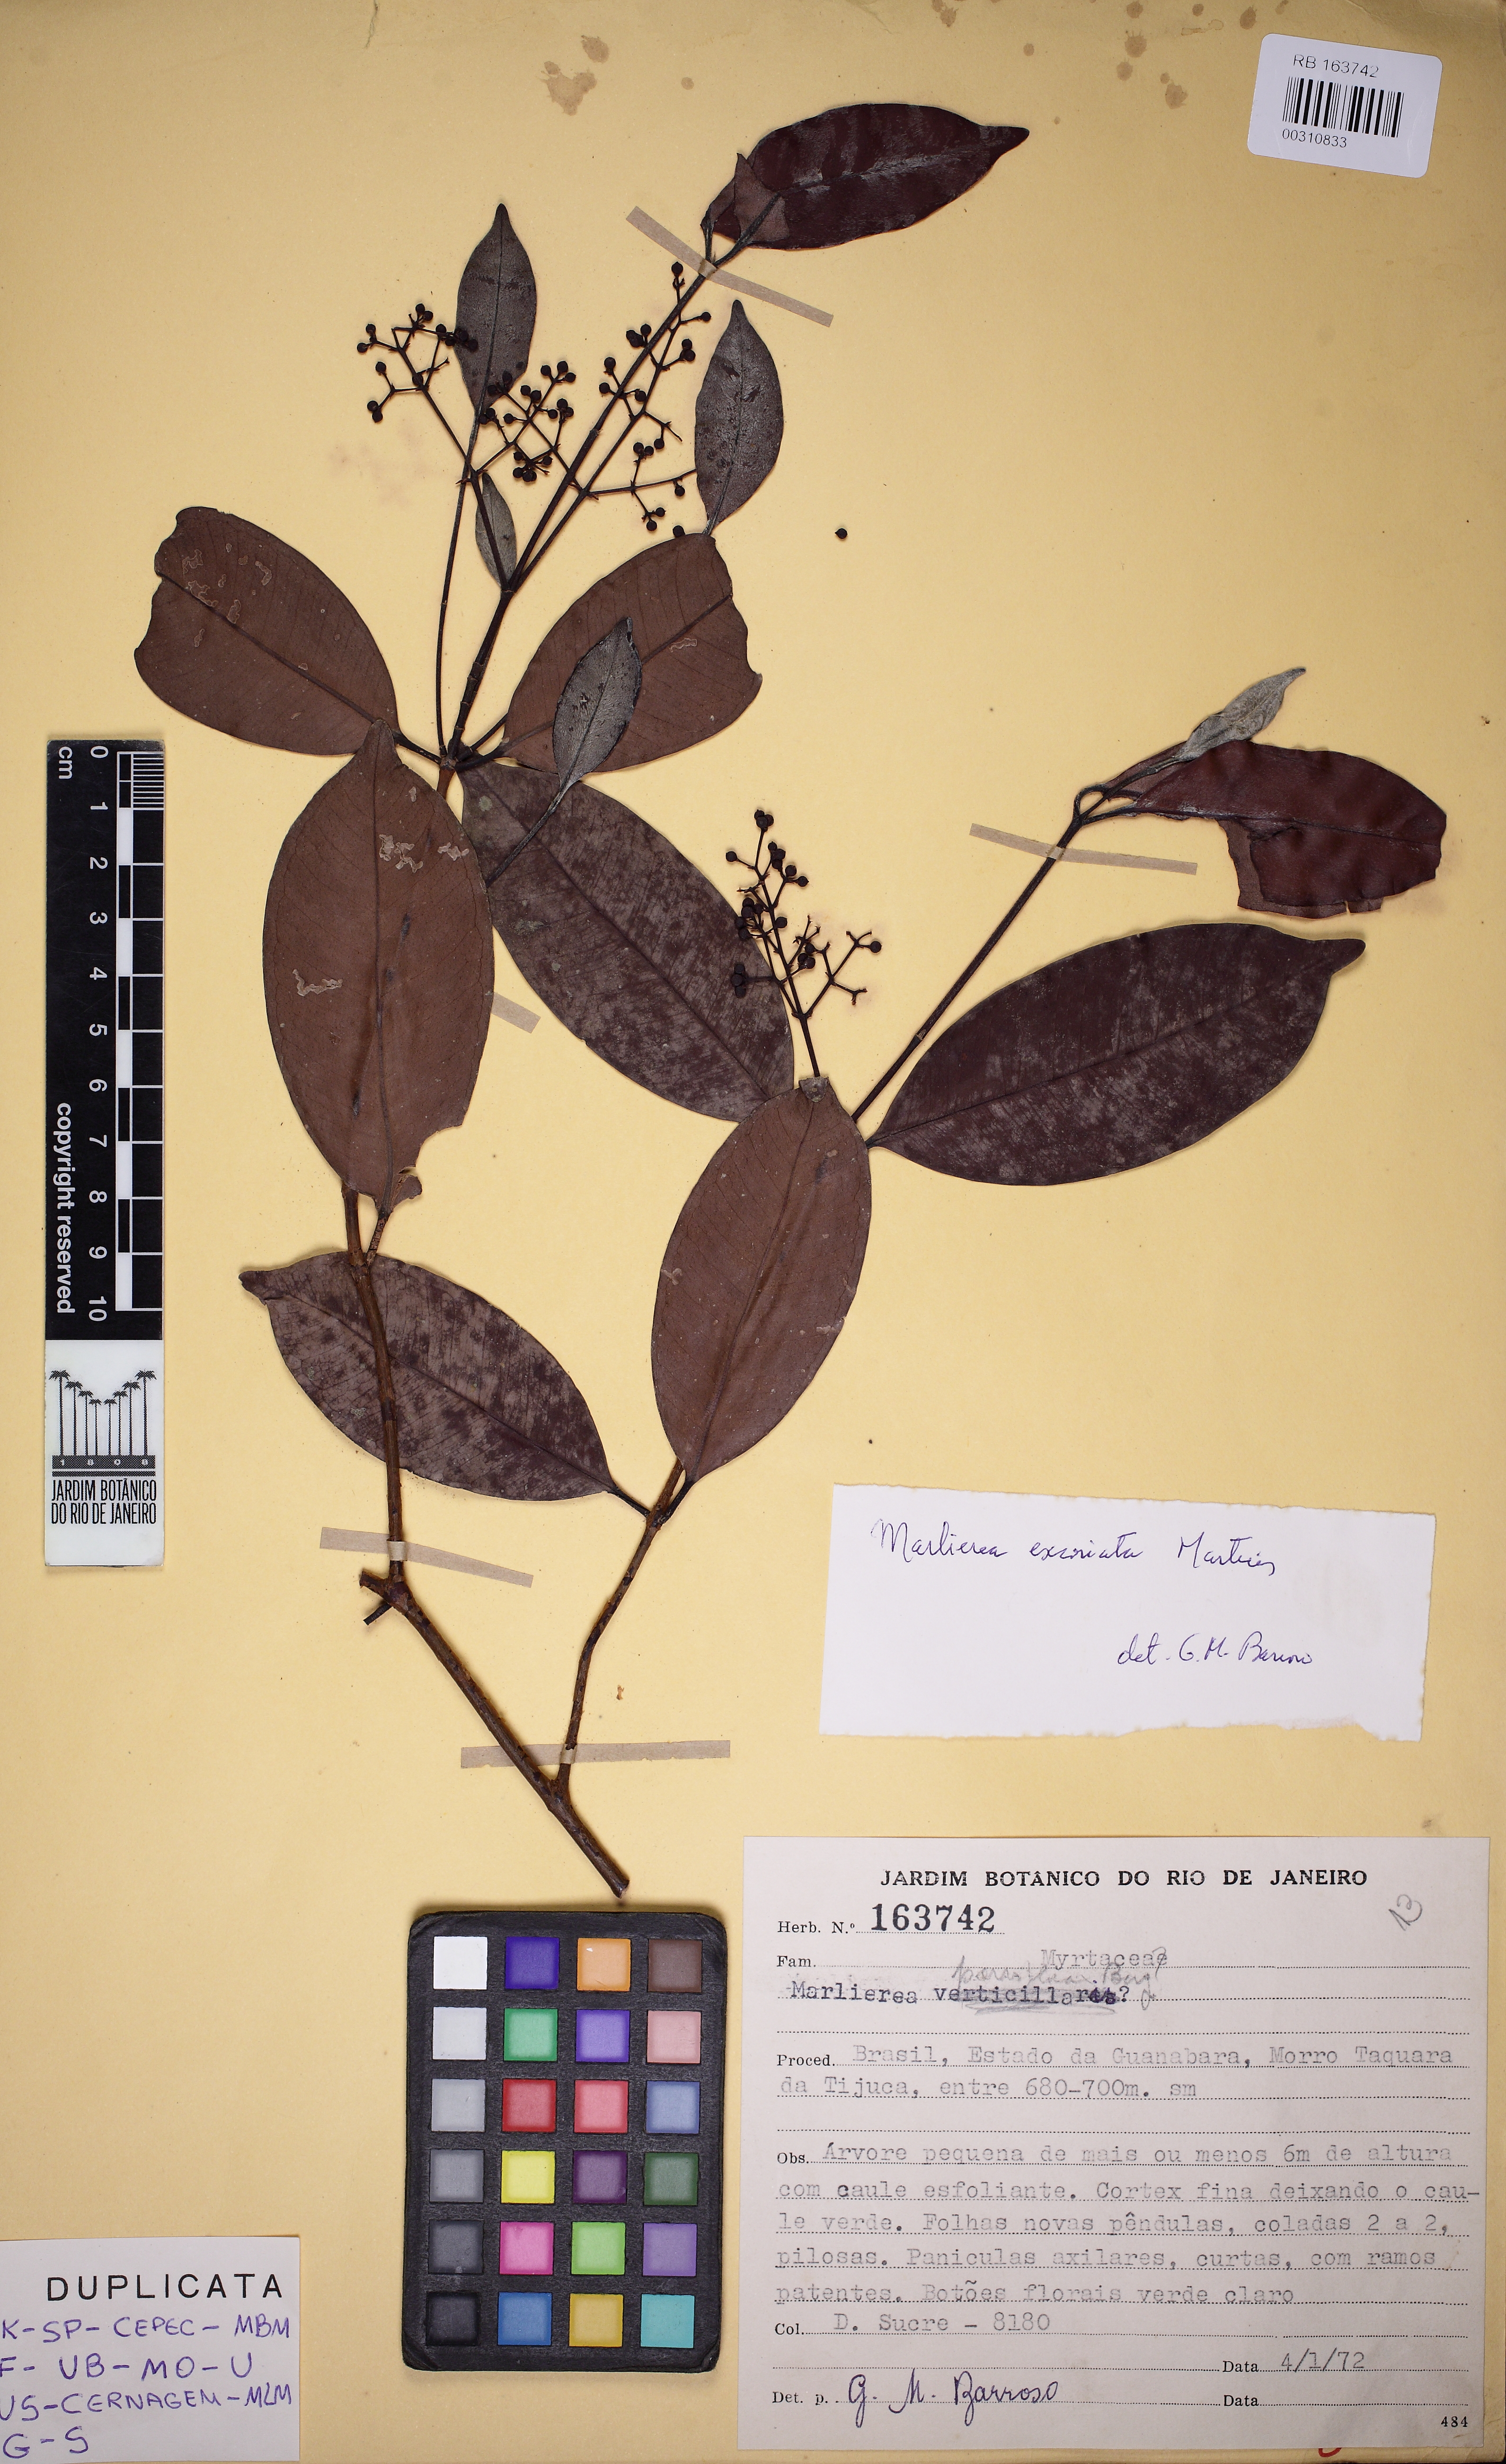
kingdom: Plantae
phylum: Tracheophyta
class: Magnoliopsida
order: Myrtales
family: Myrtaceae
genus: Myrcia
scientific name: Myrcia excoriata
